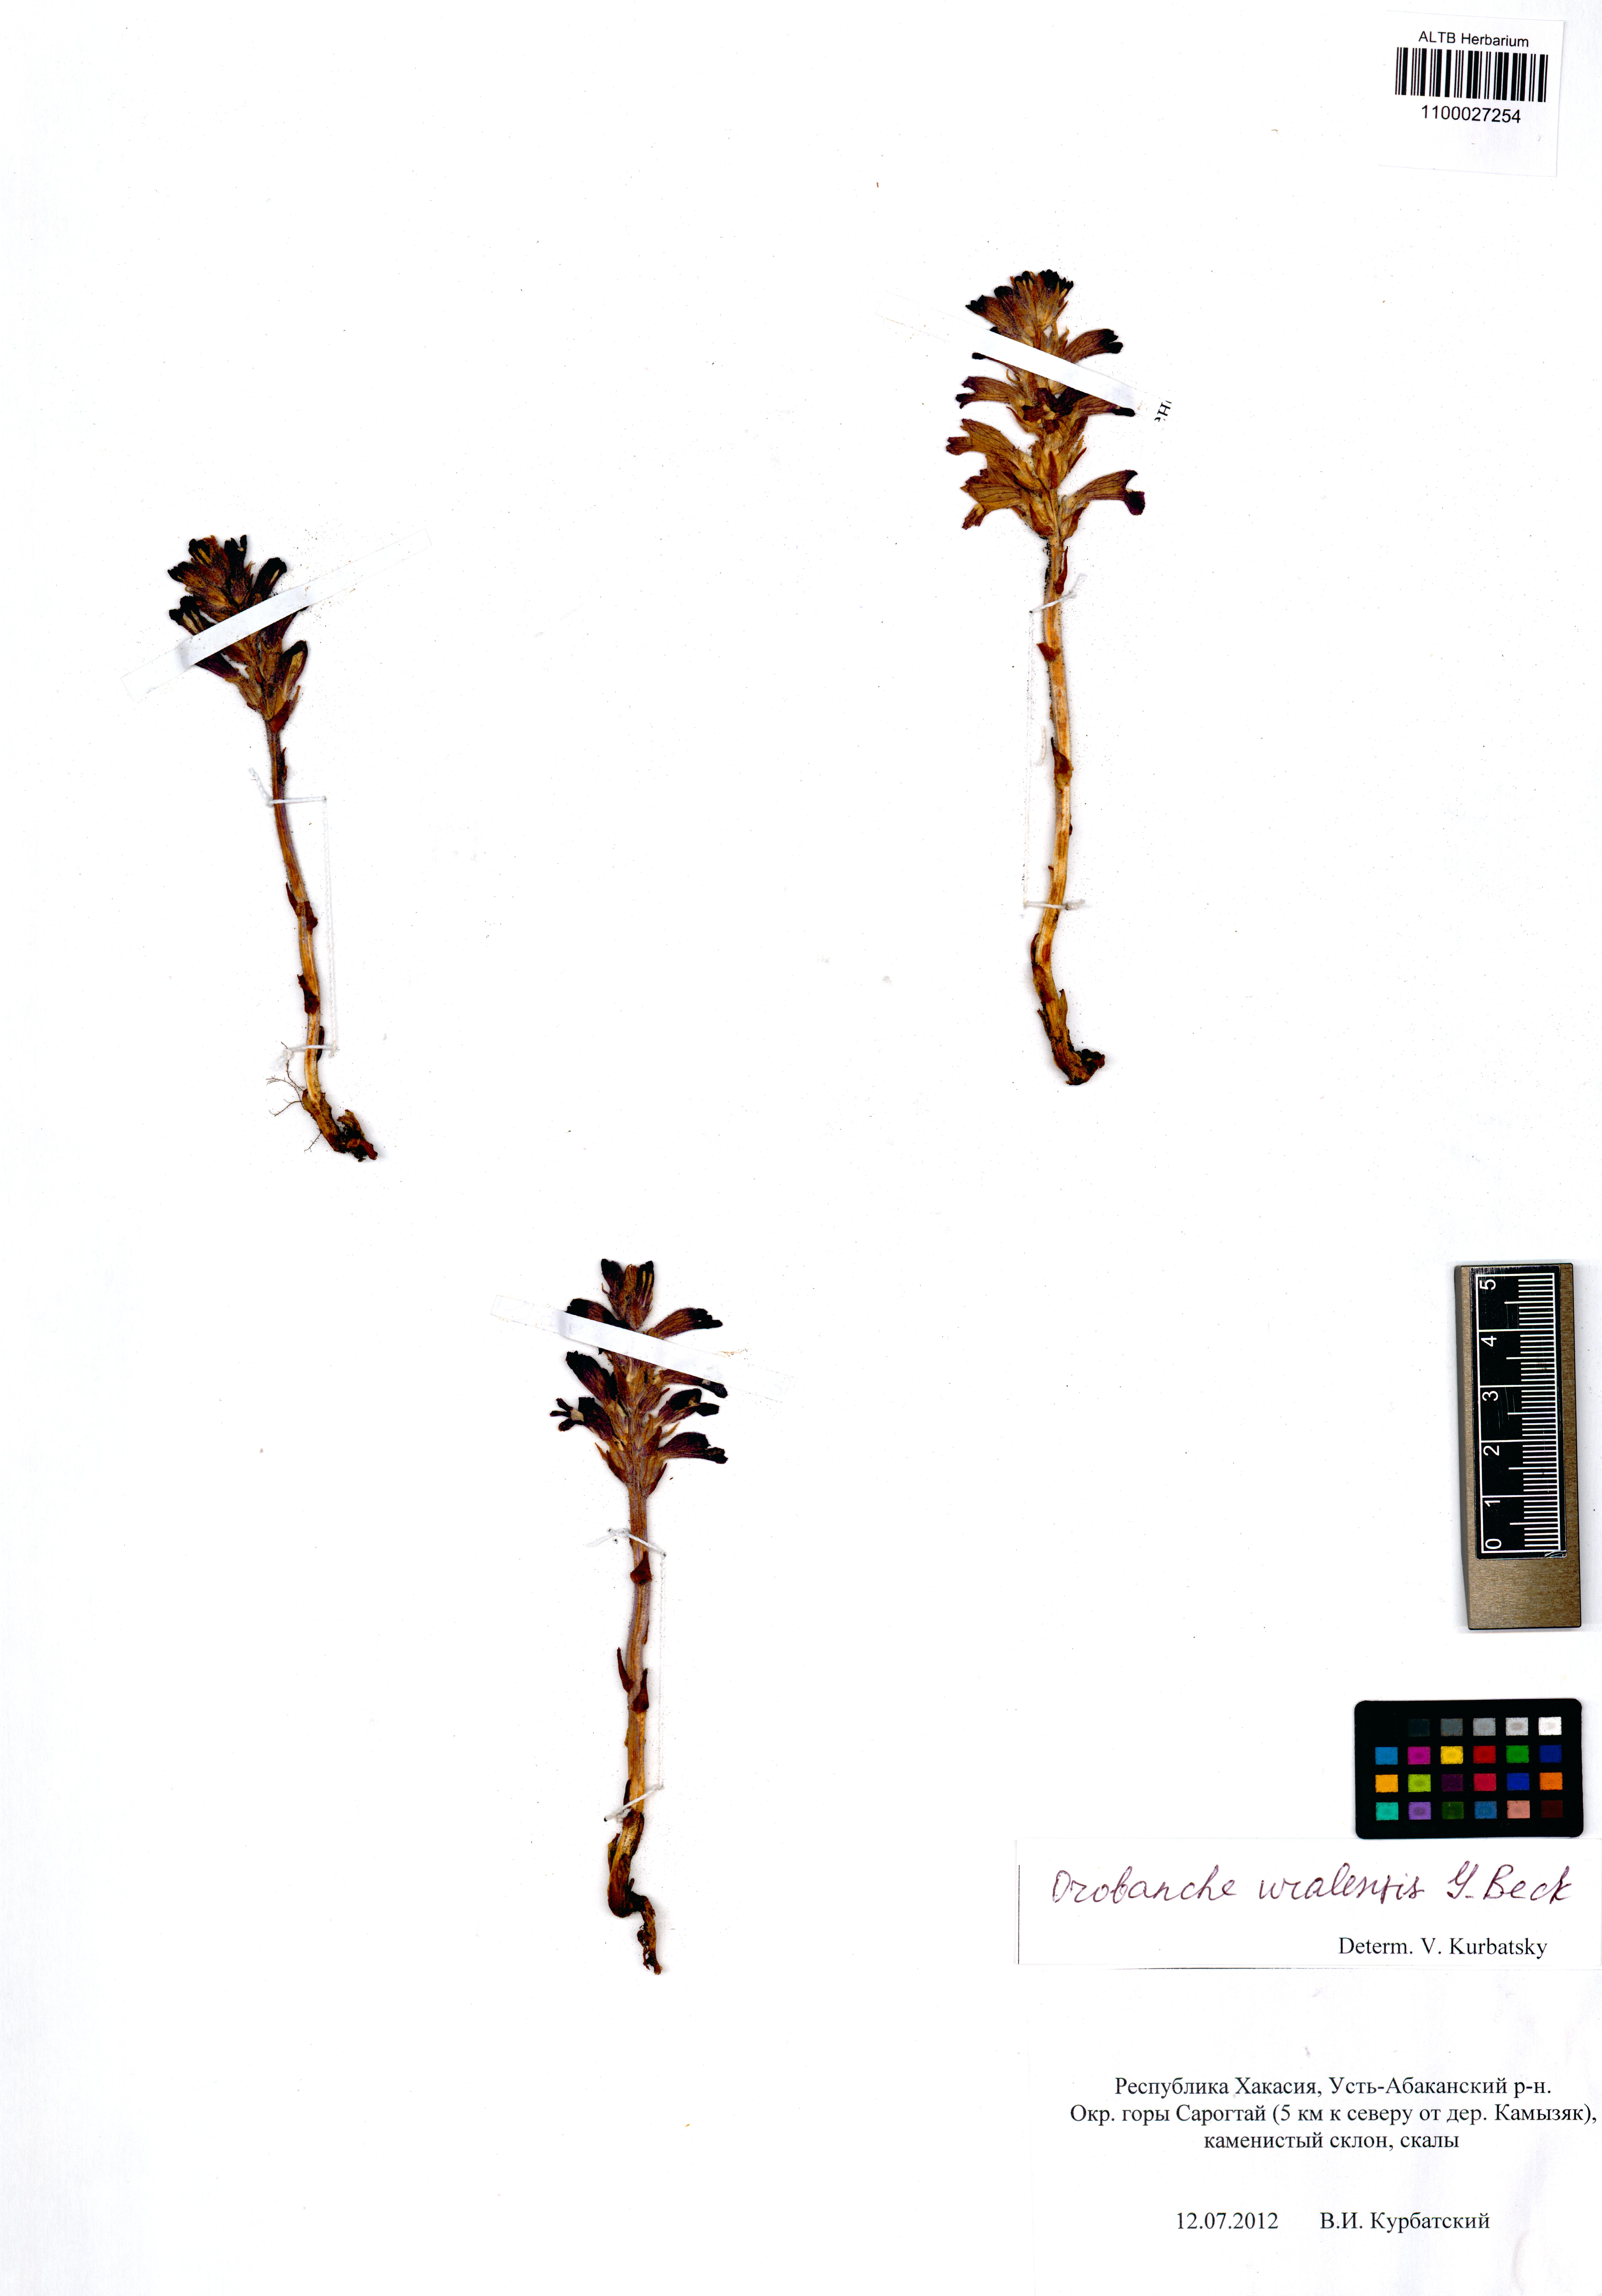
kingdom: Plantae
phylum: Tracheophyta
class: Magnoliopsida
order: Lamiales
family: Orobanchaceae
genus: Phelipanche
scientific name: Phelipanche pallens
